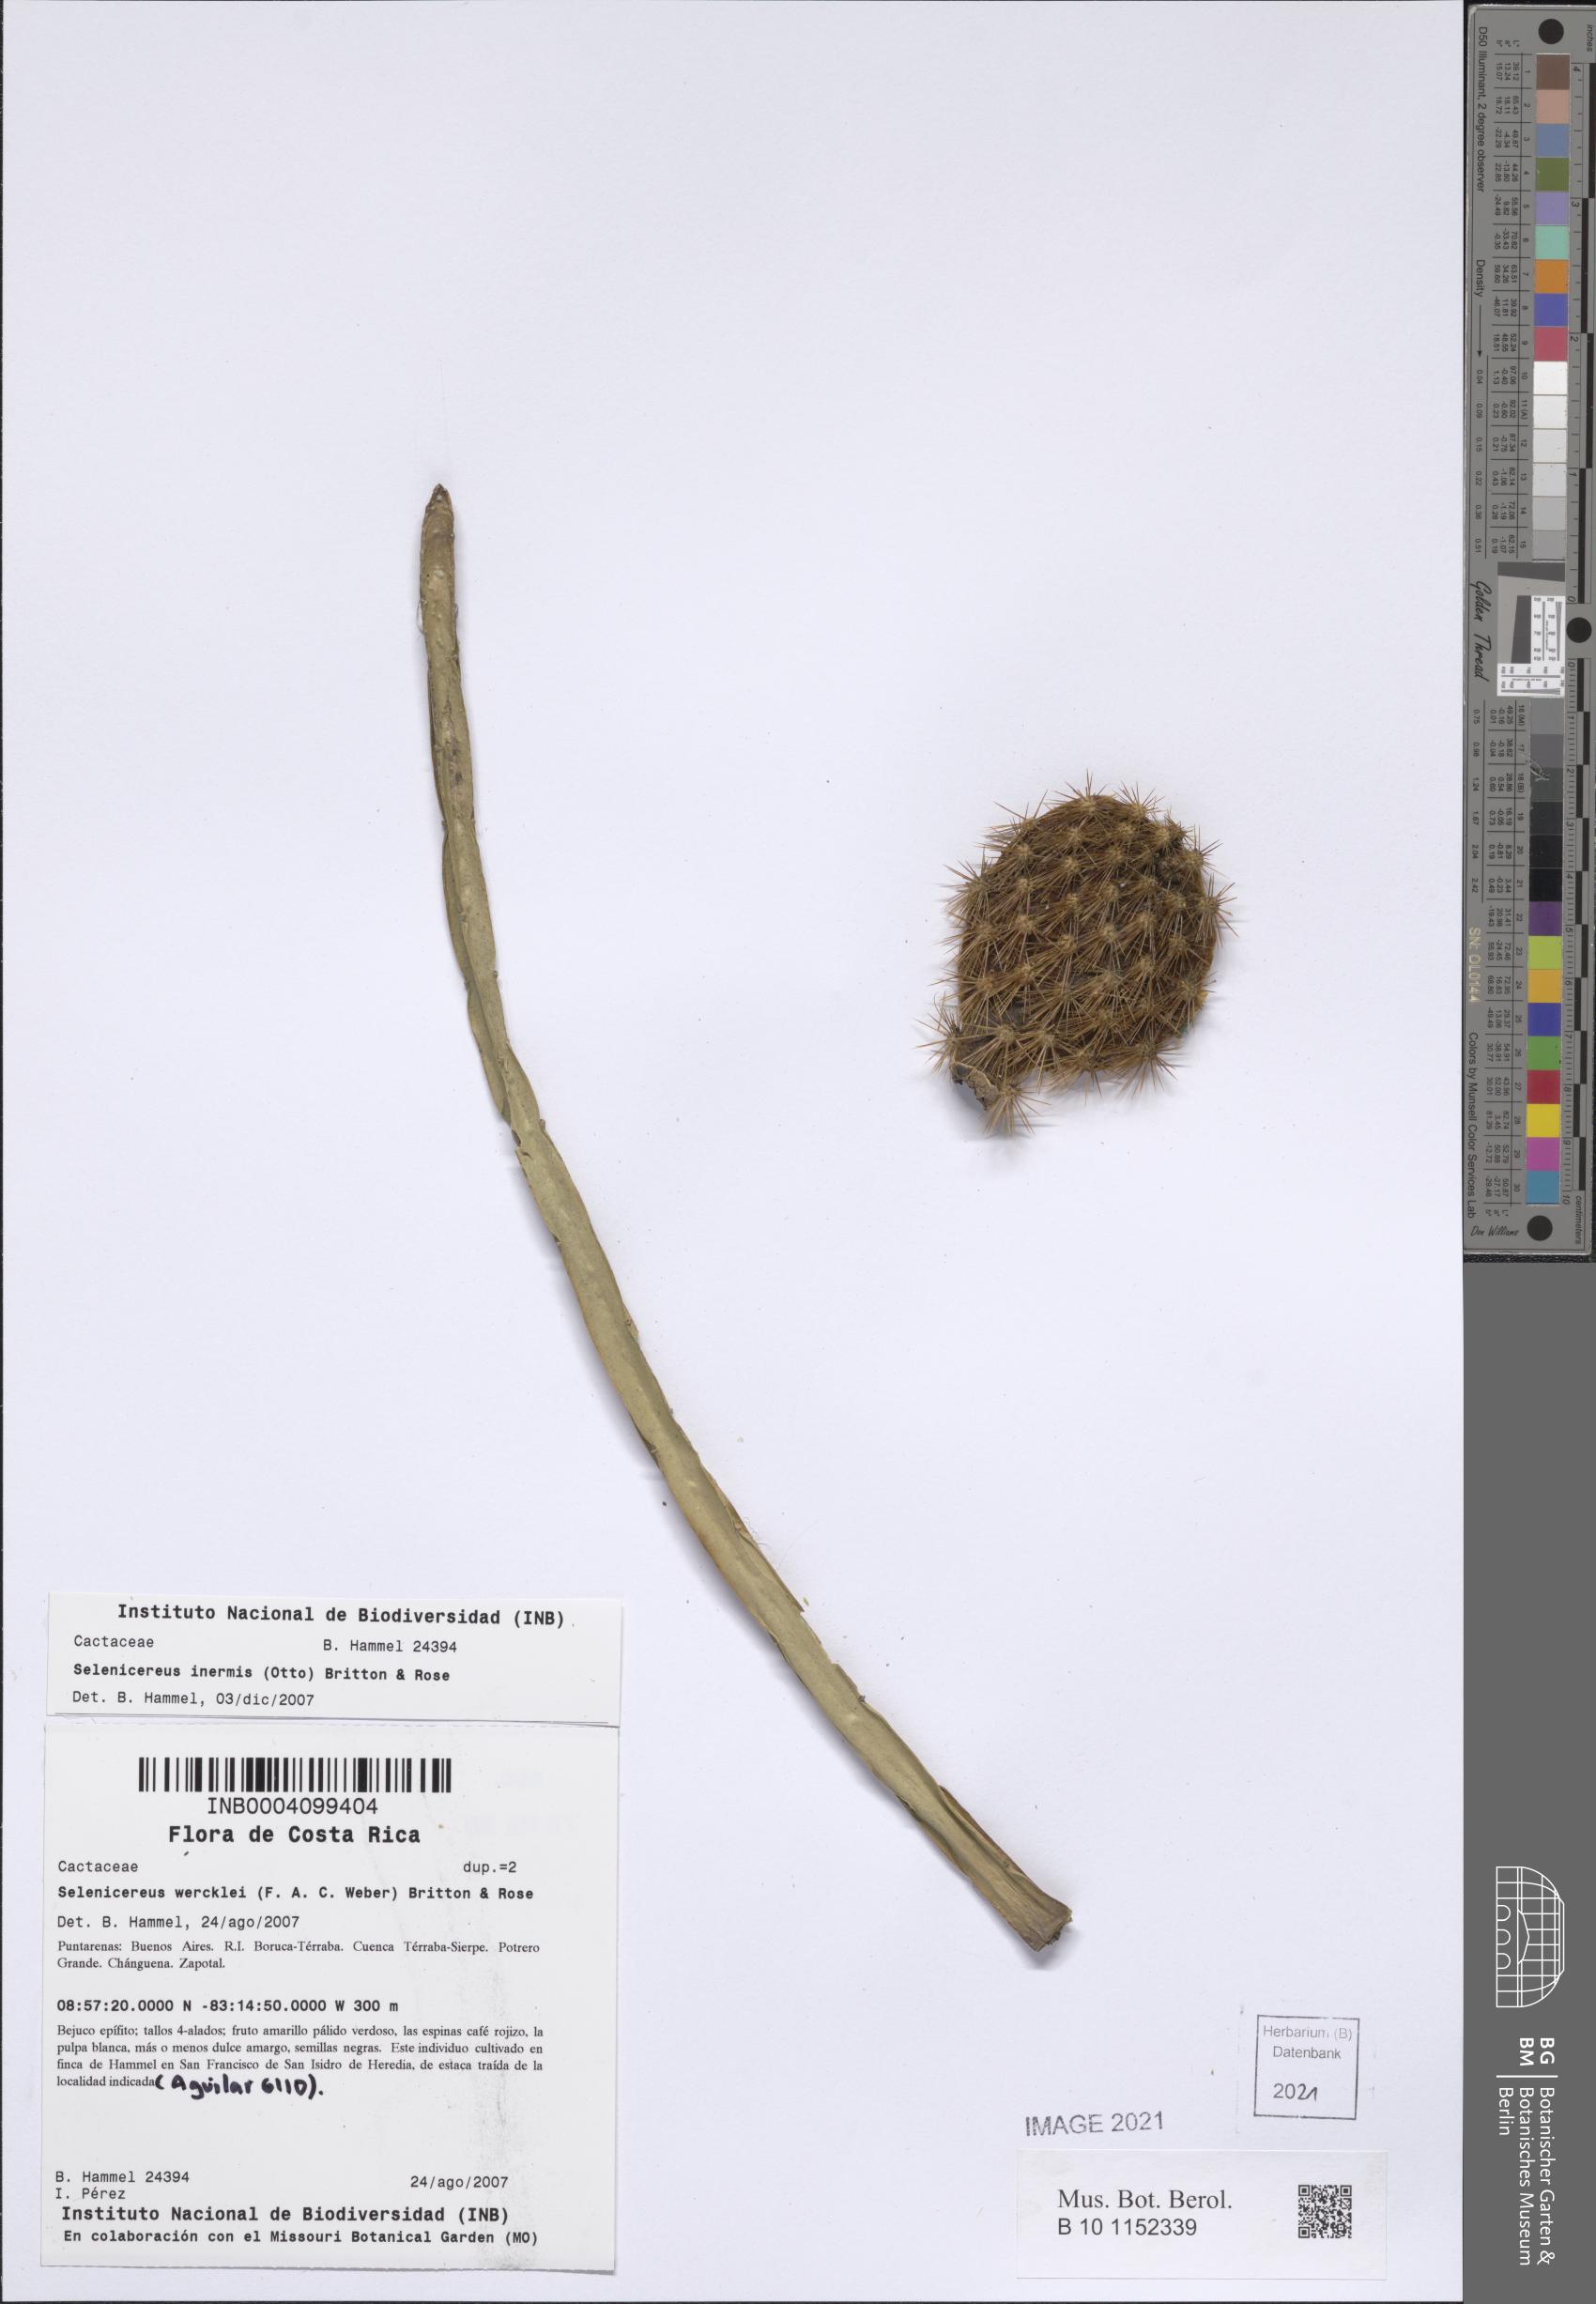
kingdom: Plantae
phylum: Tracheophyta
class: Magnoliopsida
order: Caryophyllales
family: Cactaceae
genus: Selenicereus
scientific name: Selenicereus inermis
